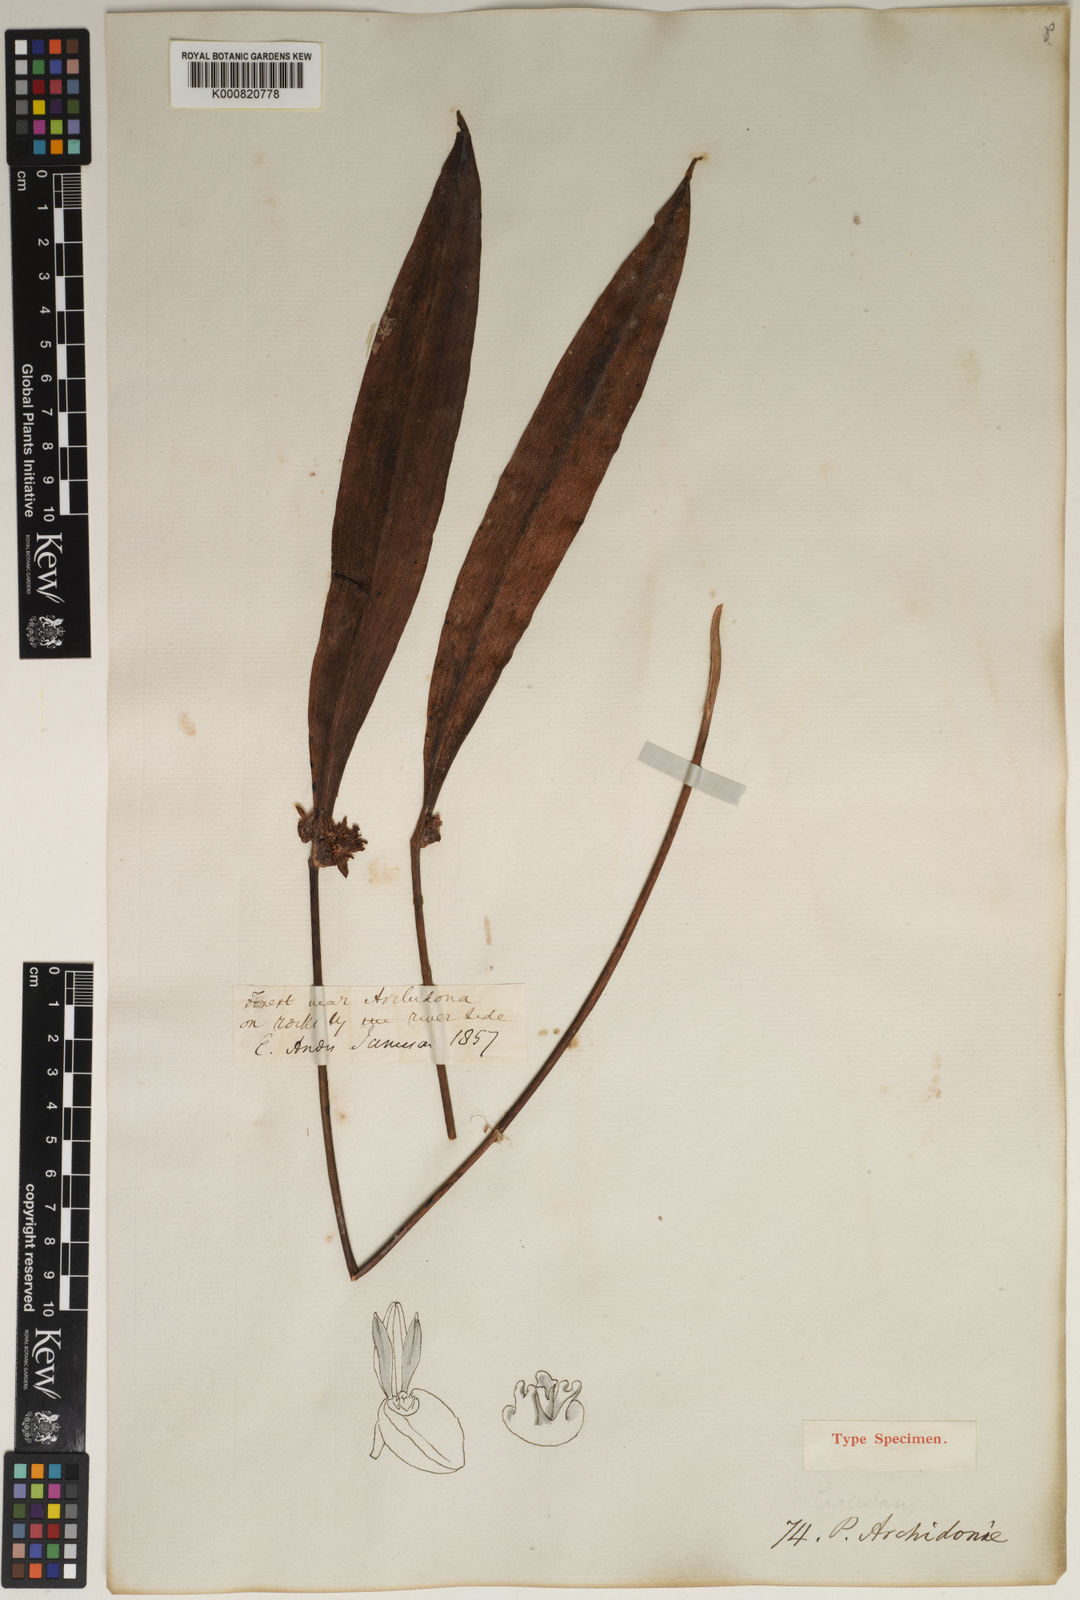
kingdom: Plantae
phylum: Tracheophyta
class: Liliopsida
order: Asparagales
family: Orchidaceae
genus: Pleurothallis
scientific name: Pleurothallis archidonae
